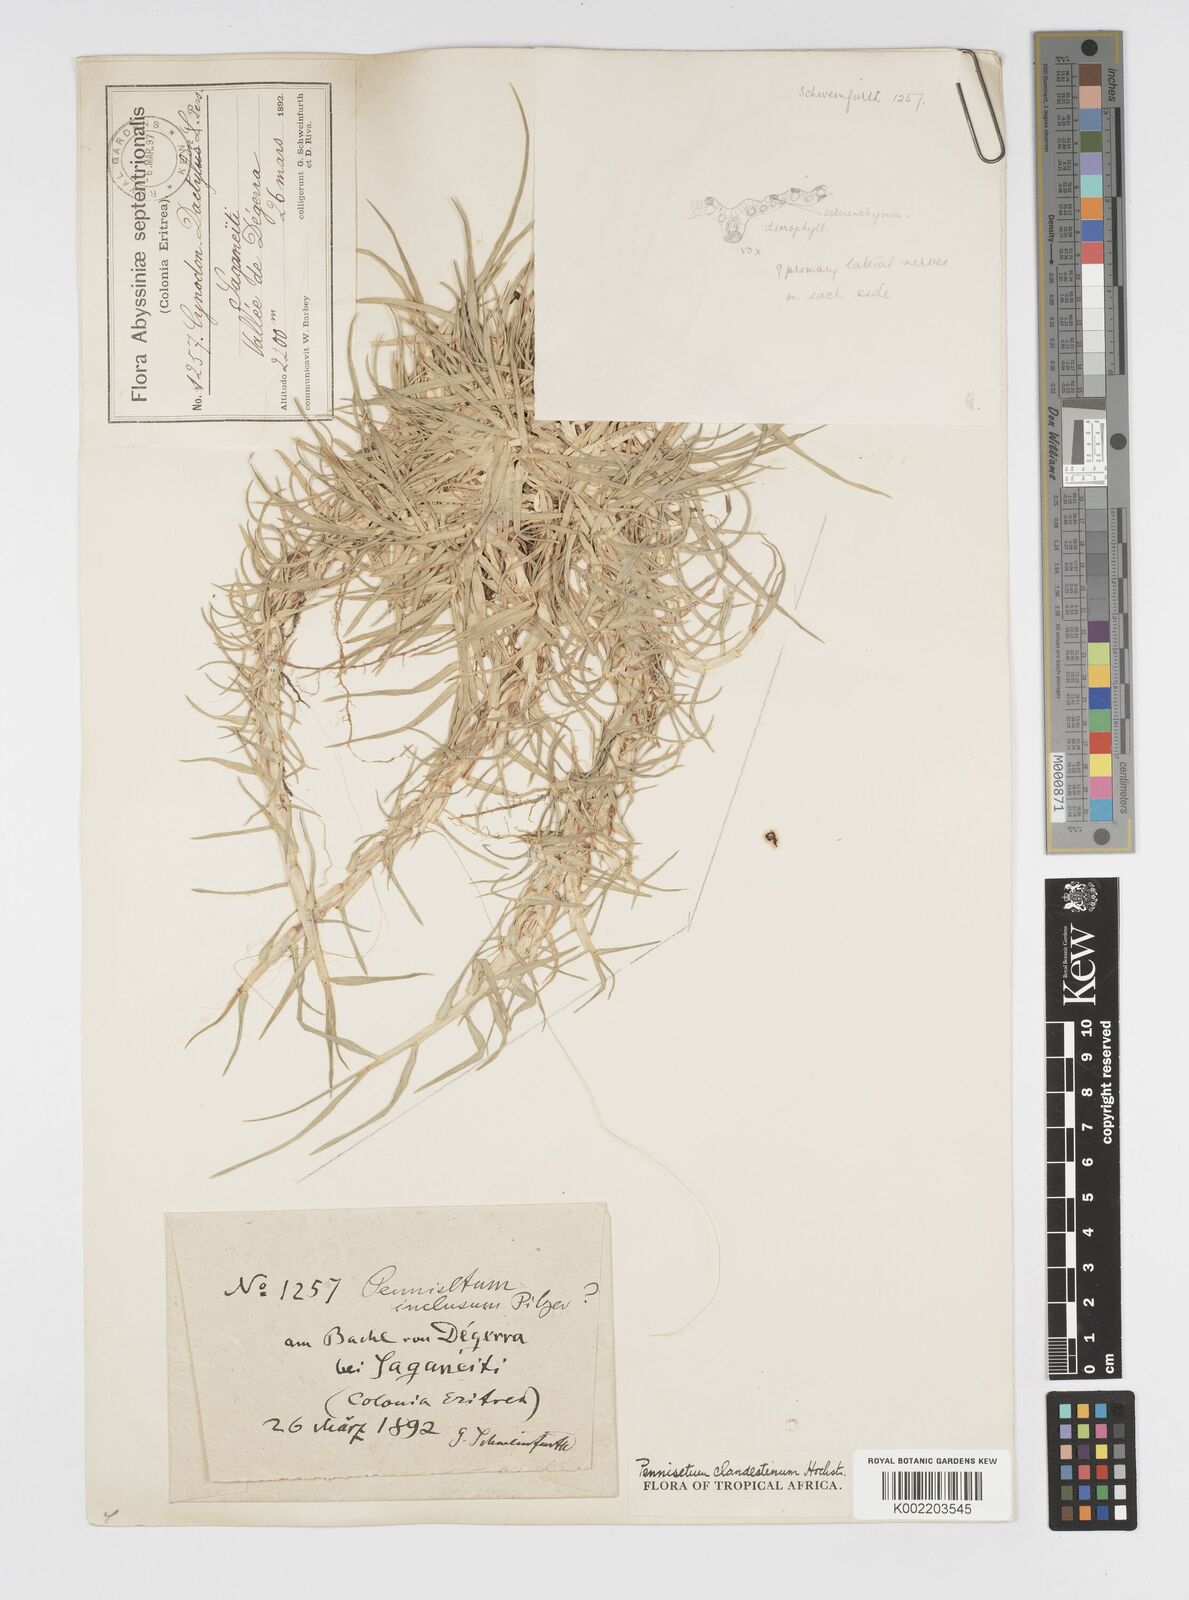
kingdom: Plantae
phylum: Tracheophyta
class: Liliopsida
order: Poales
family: Poaceae
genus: Cenchrus
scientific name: Cenchrus clandestinus
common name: Kikuyugrass
